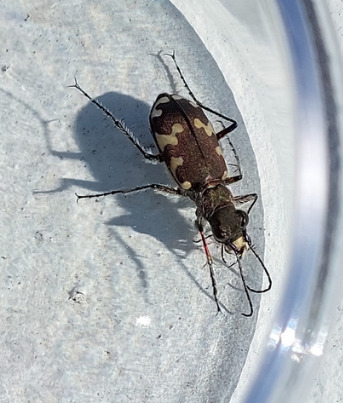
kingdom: Animalia
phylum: Arthropoda
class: Insecta
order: Coleoptera
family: Carabidae
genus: Cicindela
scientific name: Cicindela hybrida
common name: Brun sandspringer
